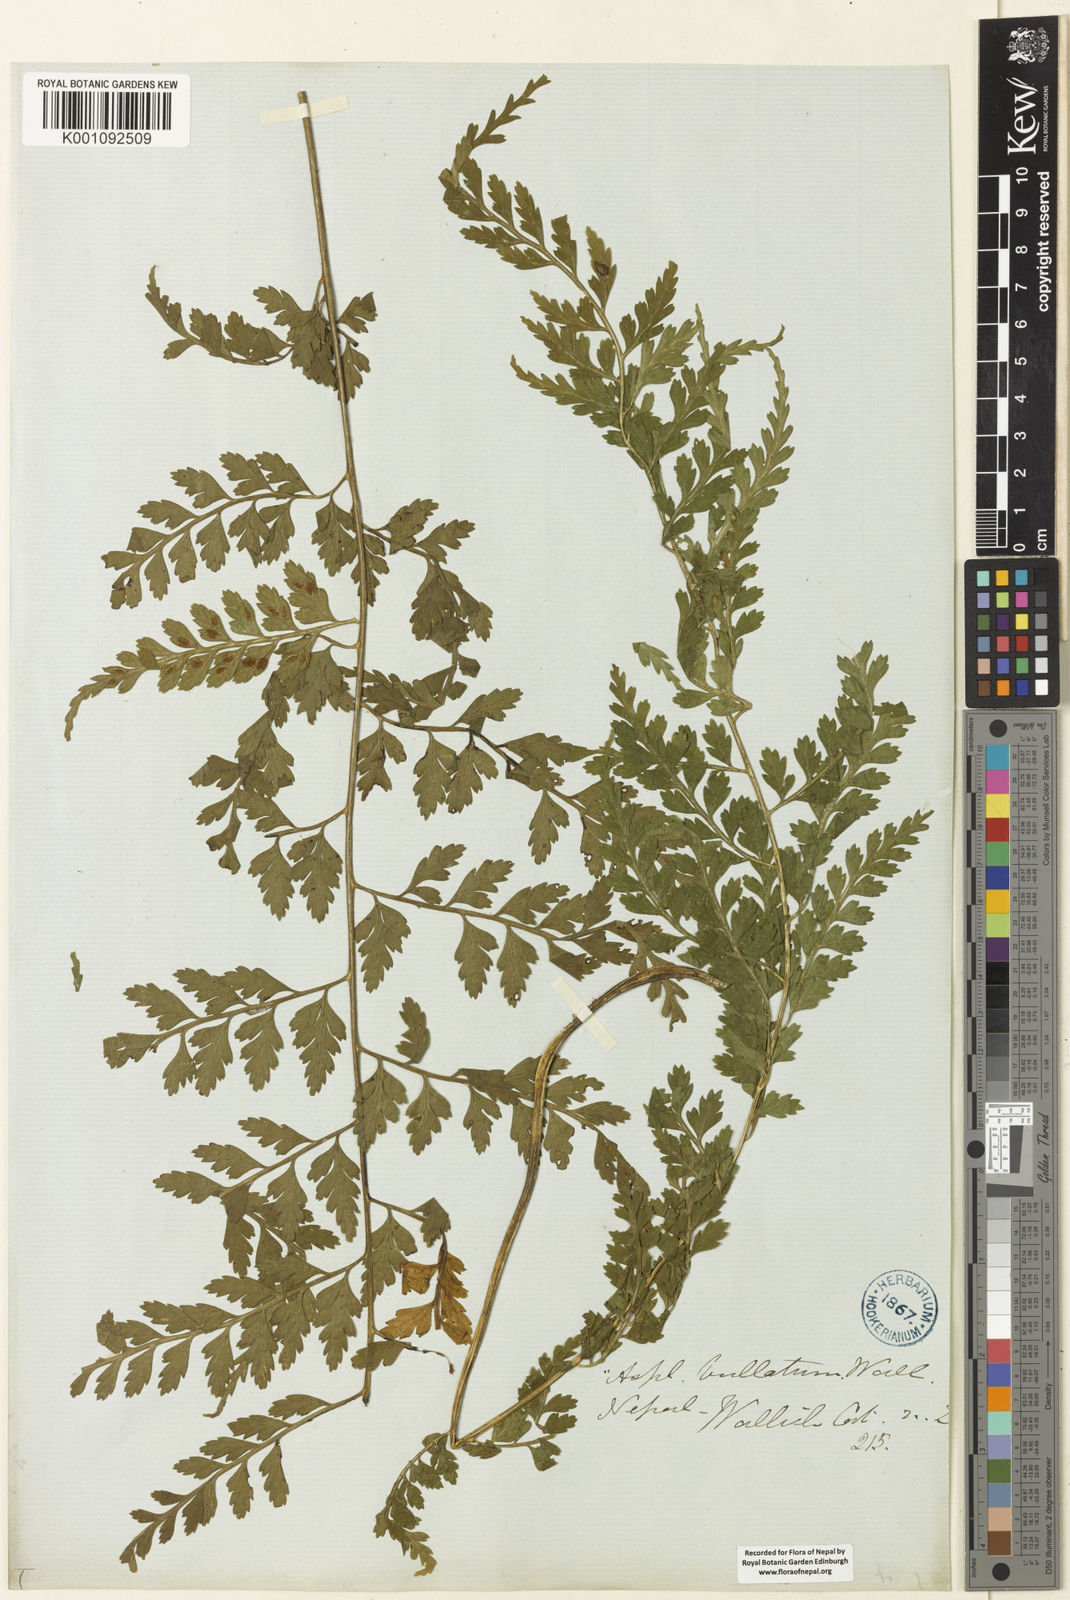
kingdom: Plantae
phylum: Tracheophyta
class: Polypodiopsida
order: Polypodiales
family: Aspleniaceae
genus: Asplenium
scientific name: Asplenium bullatum
